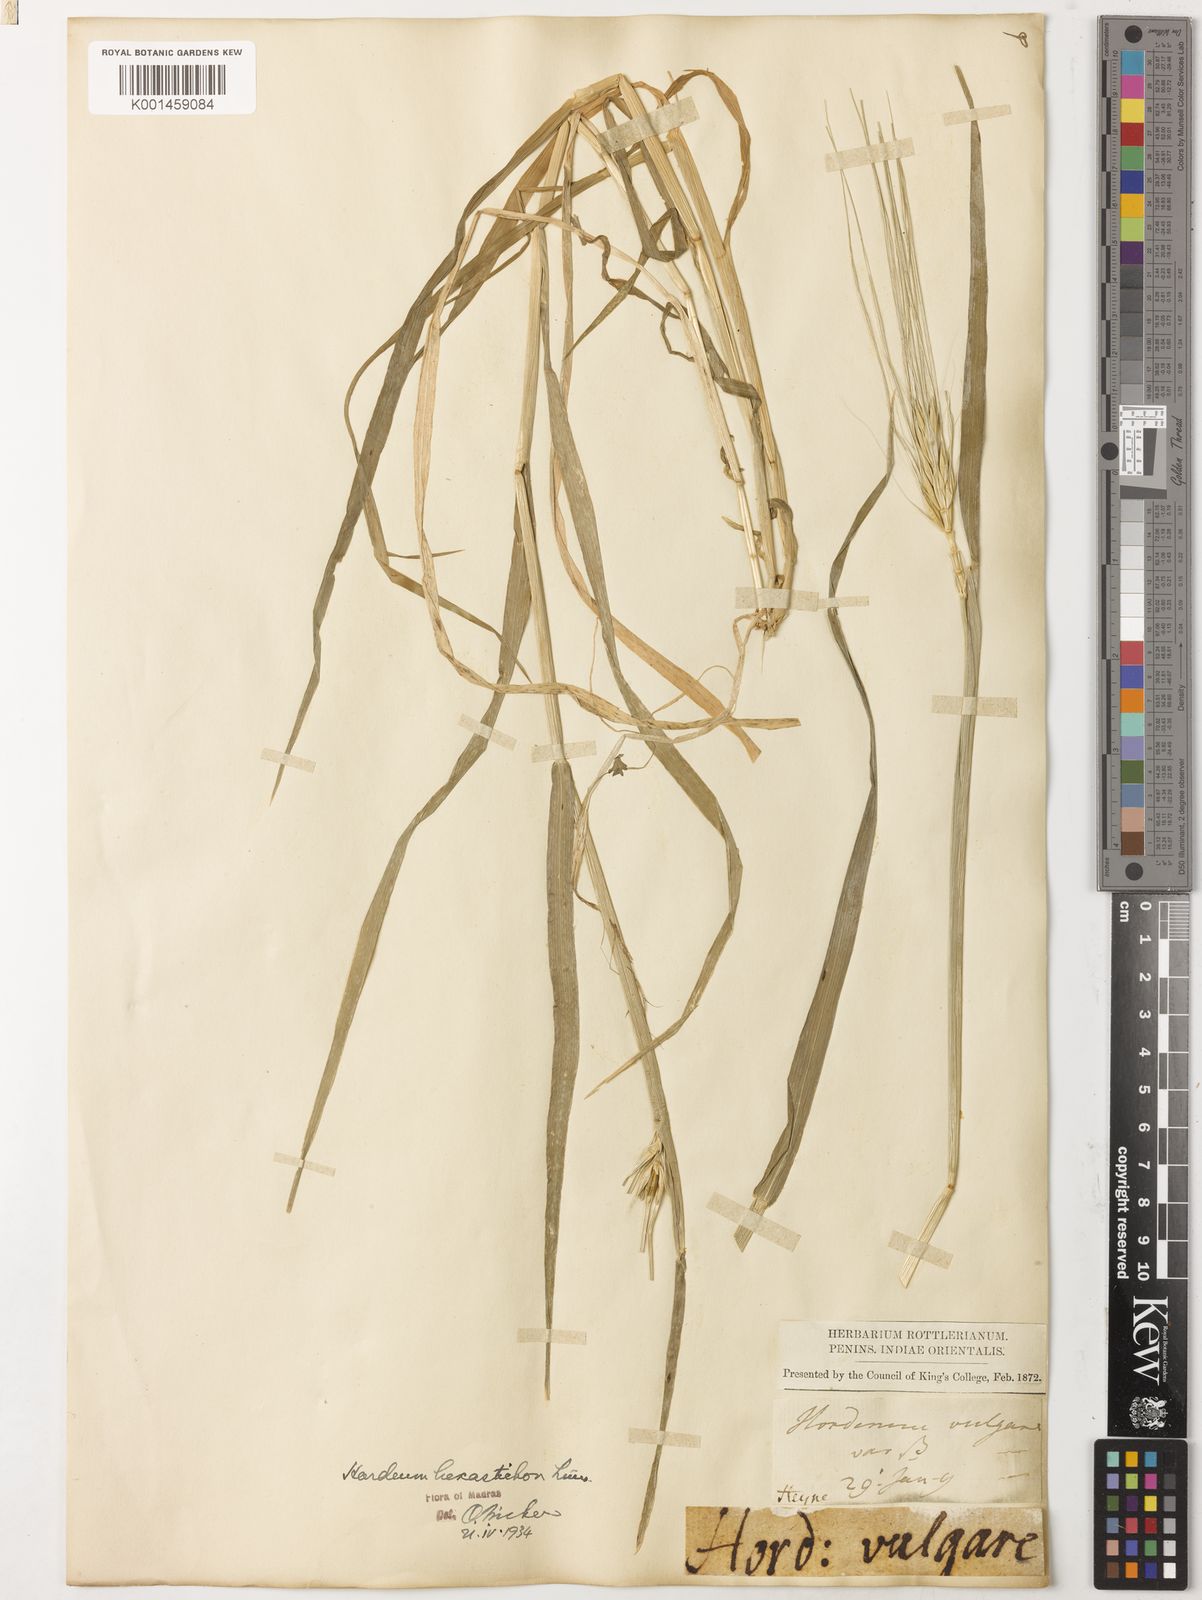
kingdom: Plantae
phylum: Tracheophyta
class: Liliopsida
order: Poales
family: Poaceae
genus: Hordeum
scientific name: Hordeum vulgare
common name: Common barley
